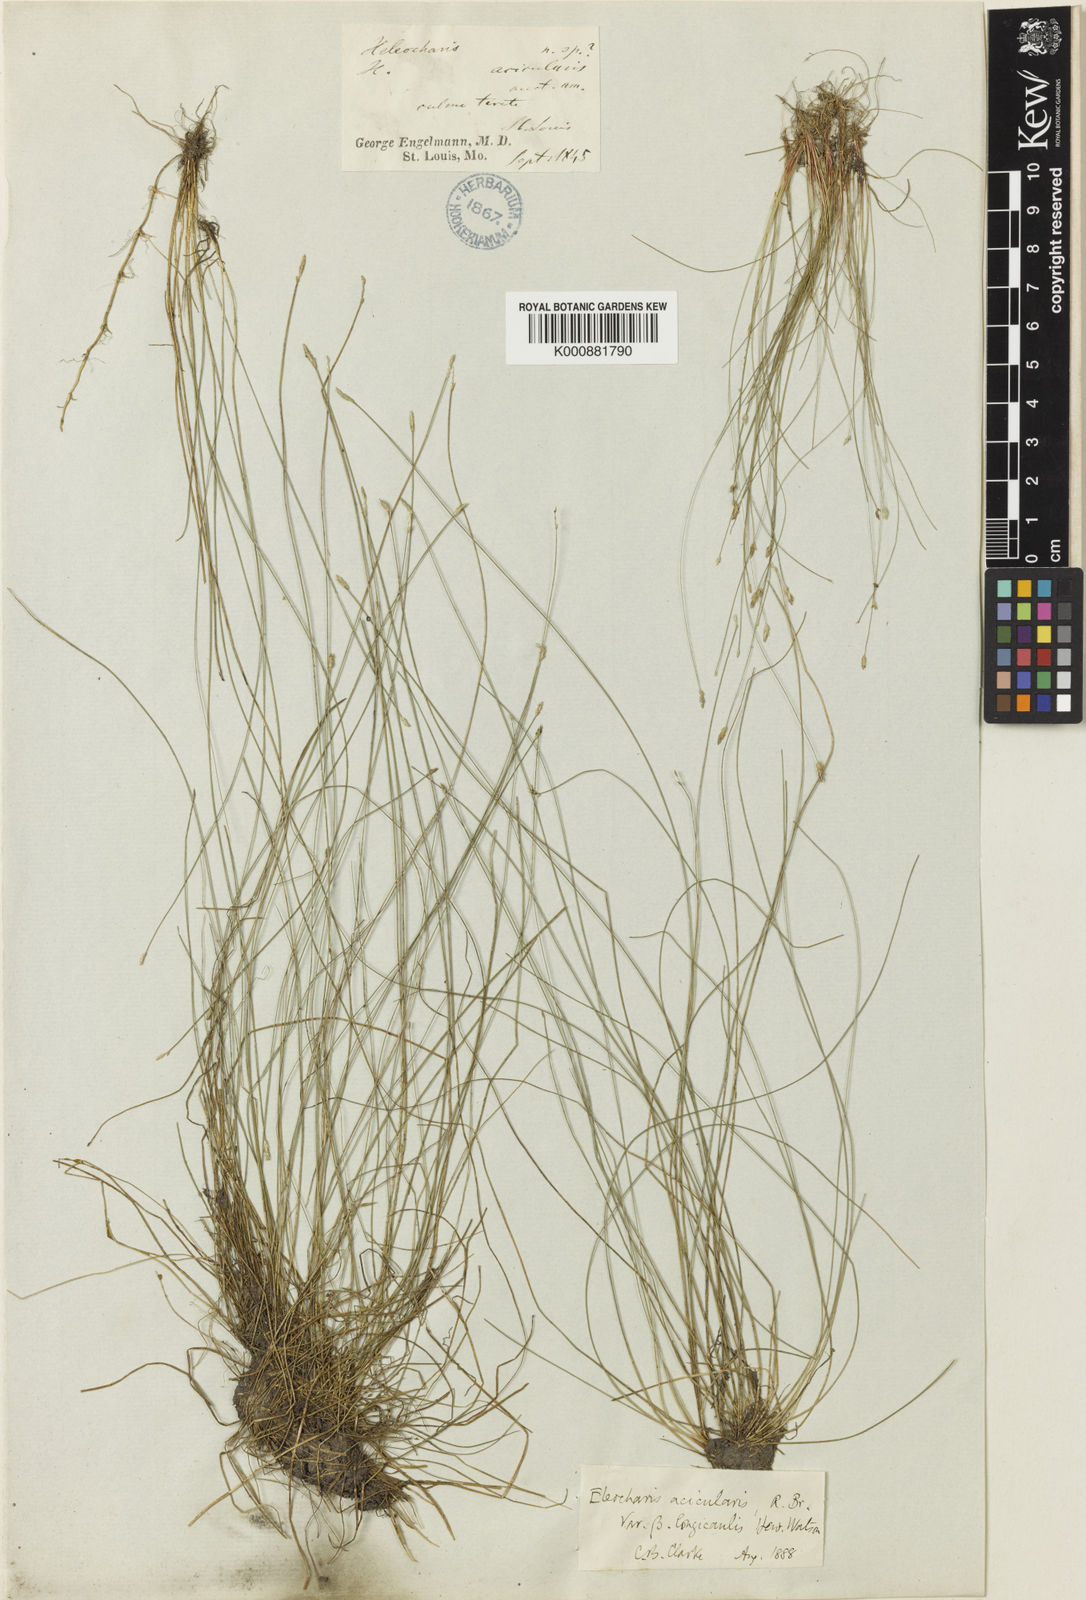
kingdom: Plantae
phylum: Tracheophyta
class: Liliopsida
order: Poales
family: Cyperaceae
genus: Eleocharis
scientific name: Eleocharis acicularis
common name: Needle spike-rush
